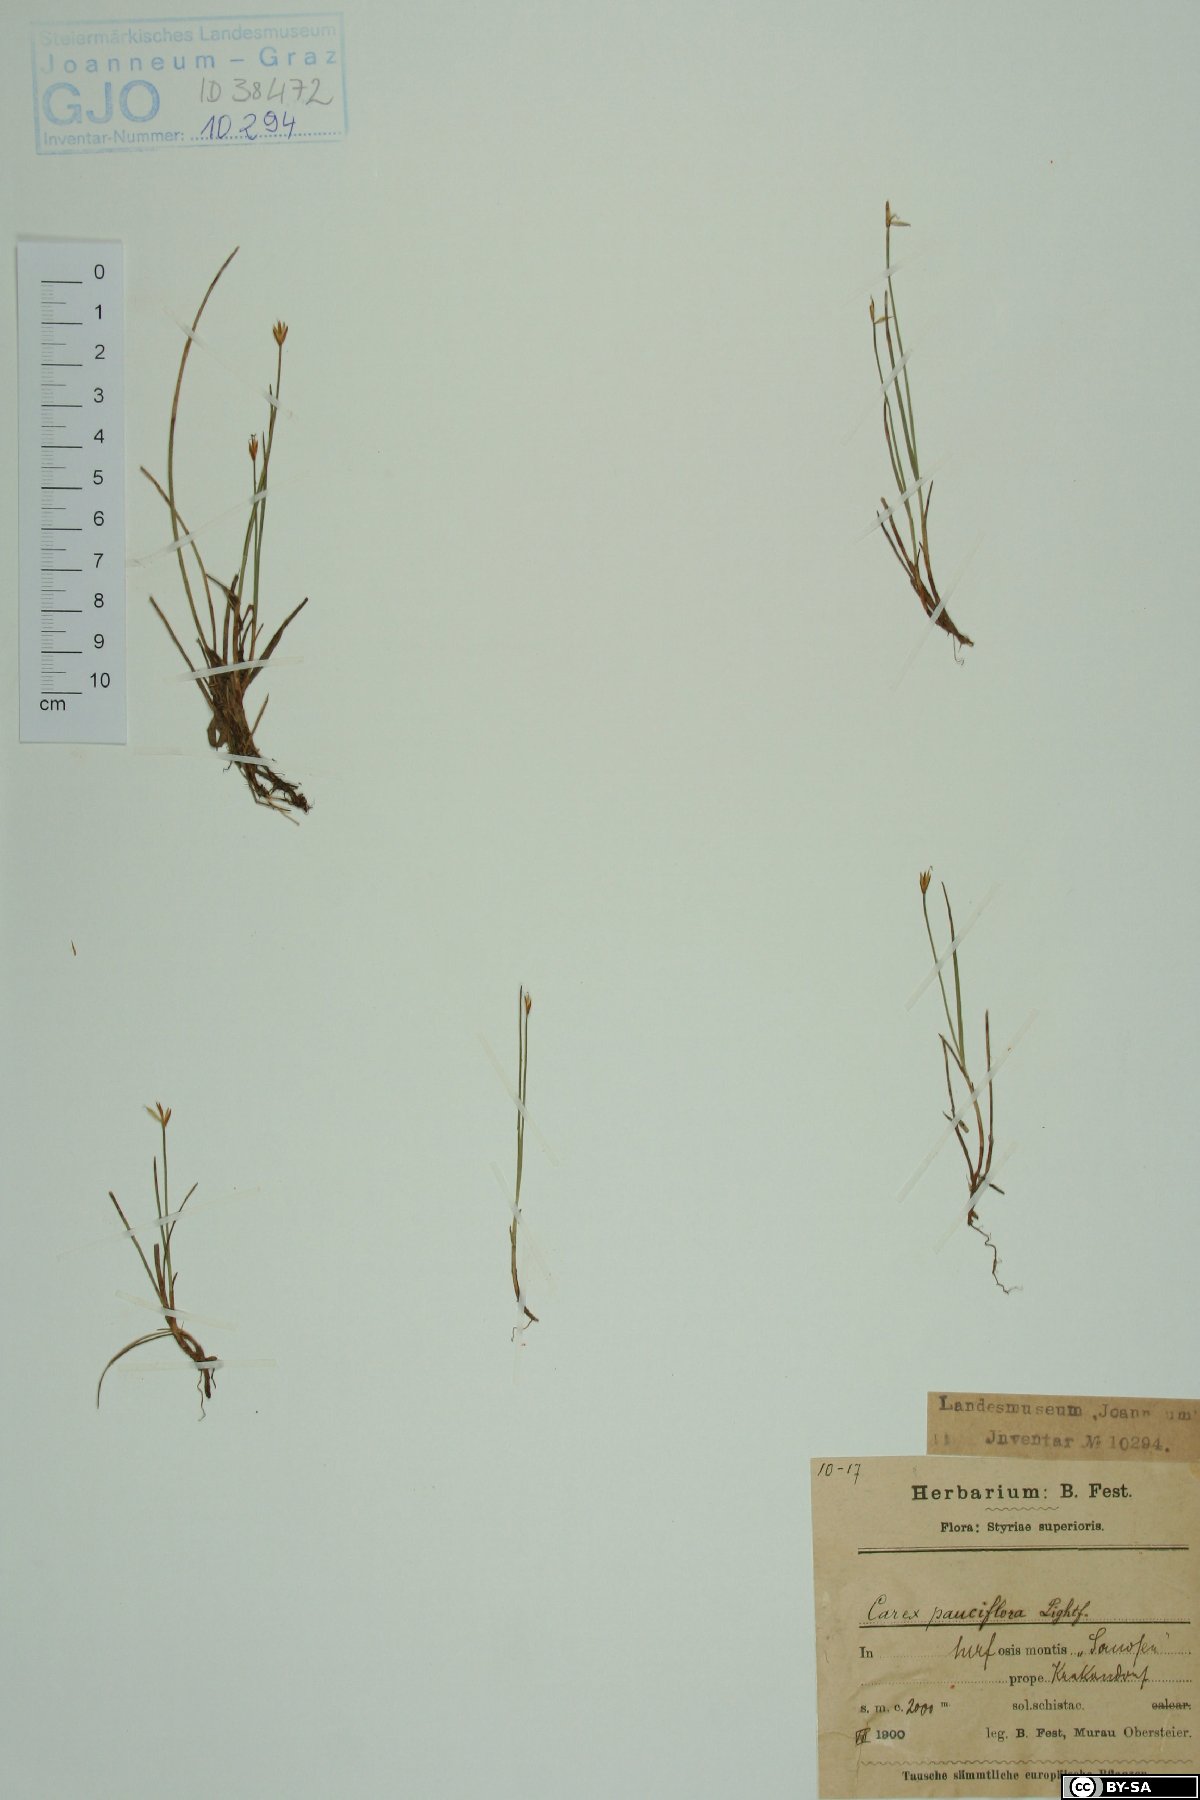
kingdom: Plantae
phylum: Tracheophyta
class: Liliopsida
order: Poales
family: Cyperaceae
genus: Carex
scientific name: Carex pauciflora
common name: Few-flowered sedge
